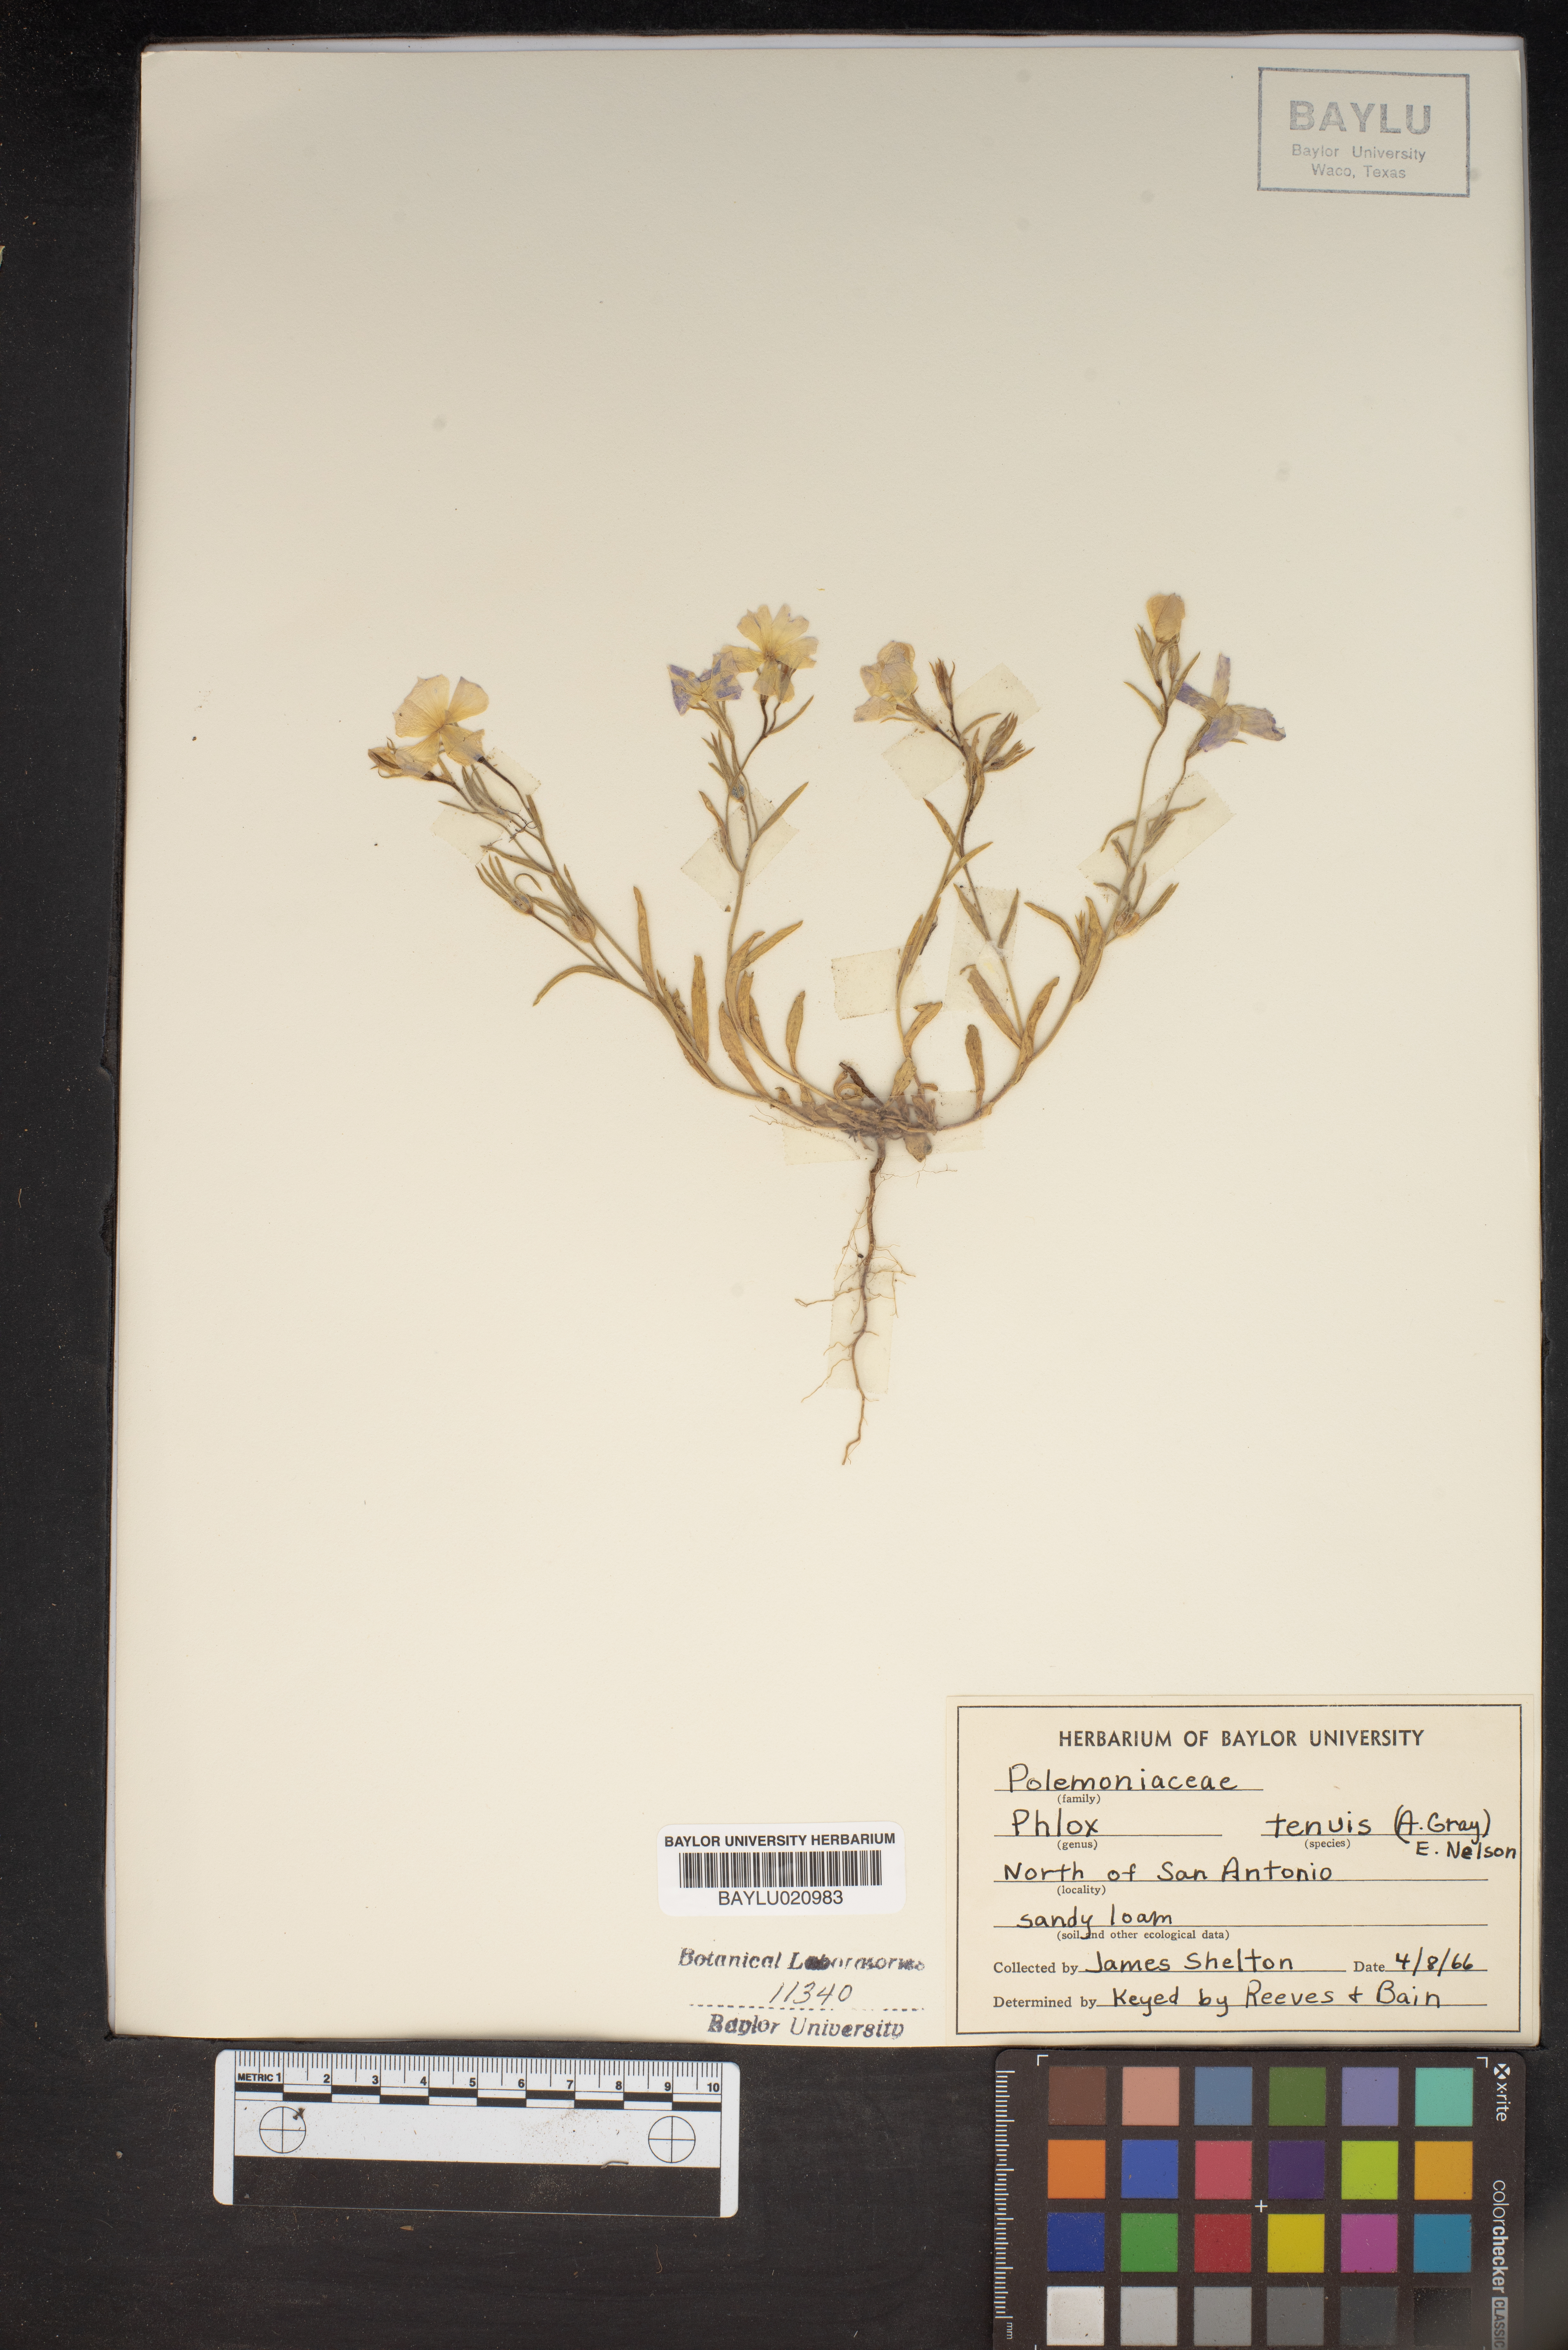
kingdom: Plantae
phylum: Tracheophyta
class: Magnoliopsida
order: Ericales
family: Polemoniaceae
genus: Phlox
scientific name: Phlox longifolia
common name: Longleaf phlox
